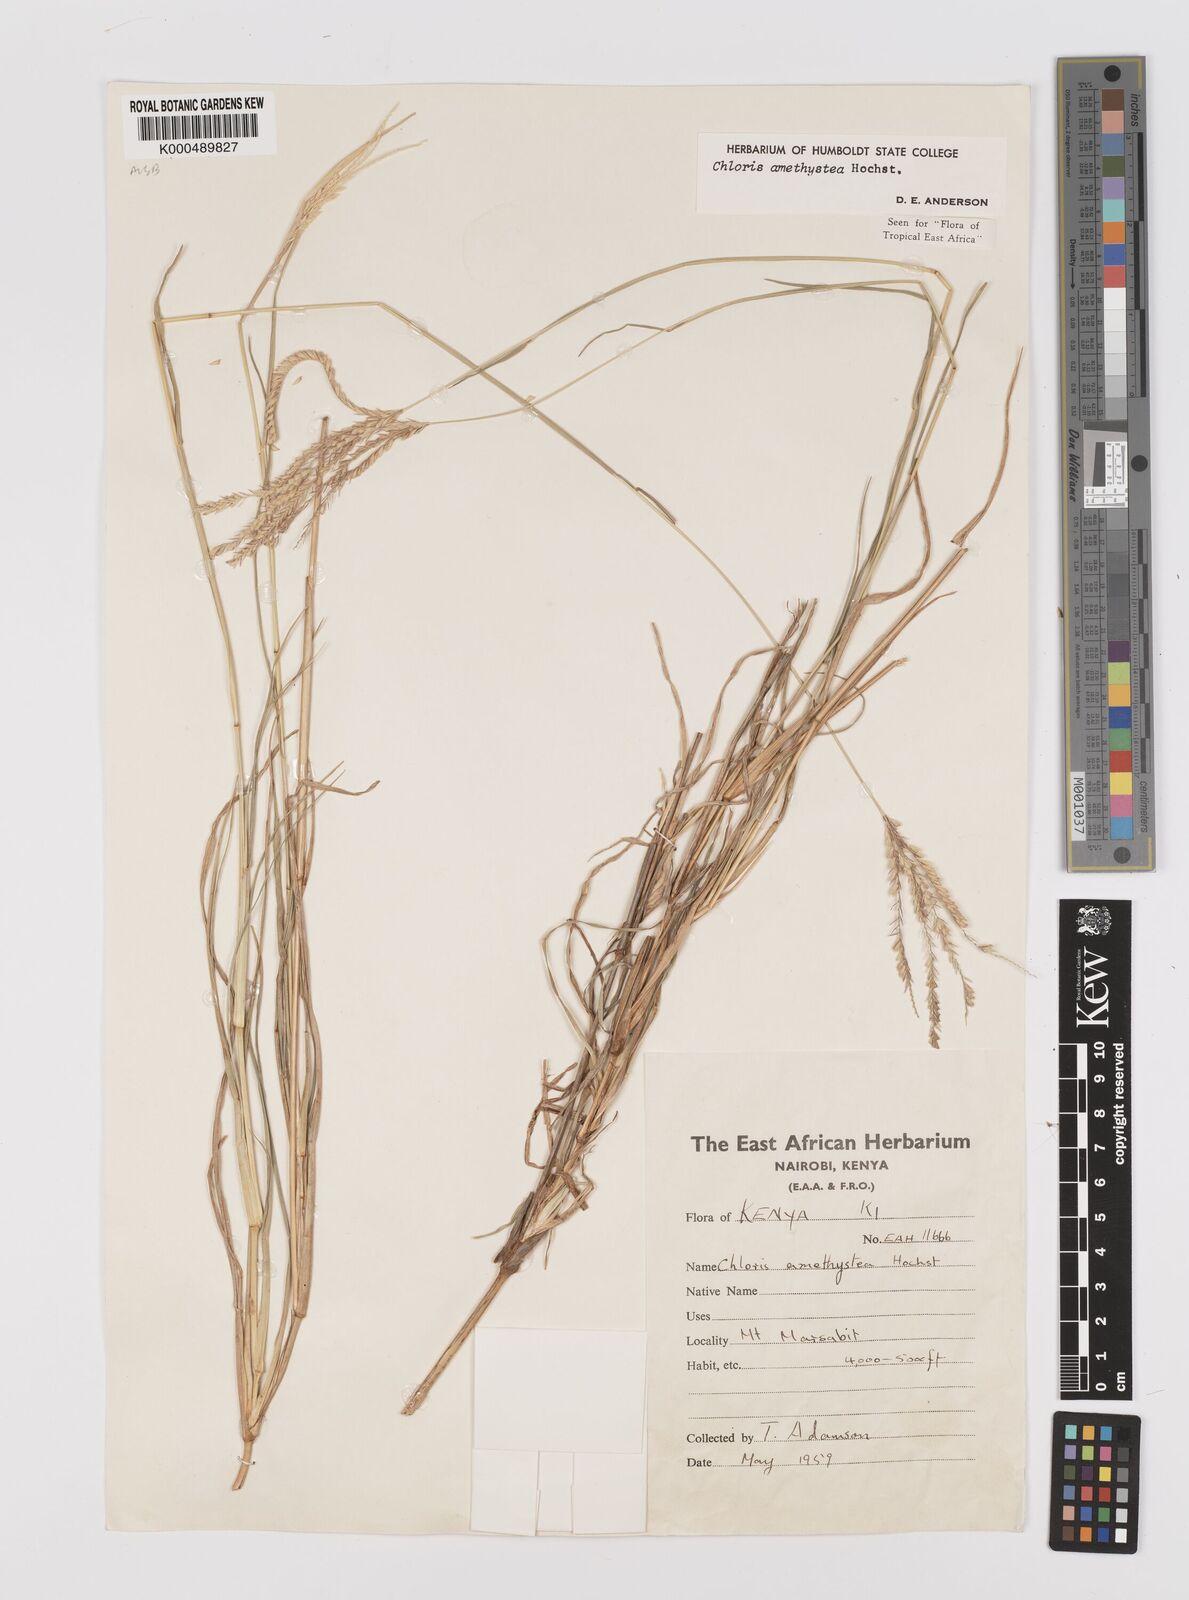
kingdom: Plantae
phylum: Tracheophyta
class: Liliopsida
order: Poales
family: Poaceae
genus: Chloris
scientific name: Chloris amethystea
